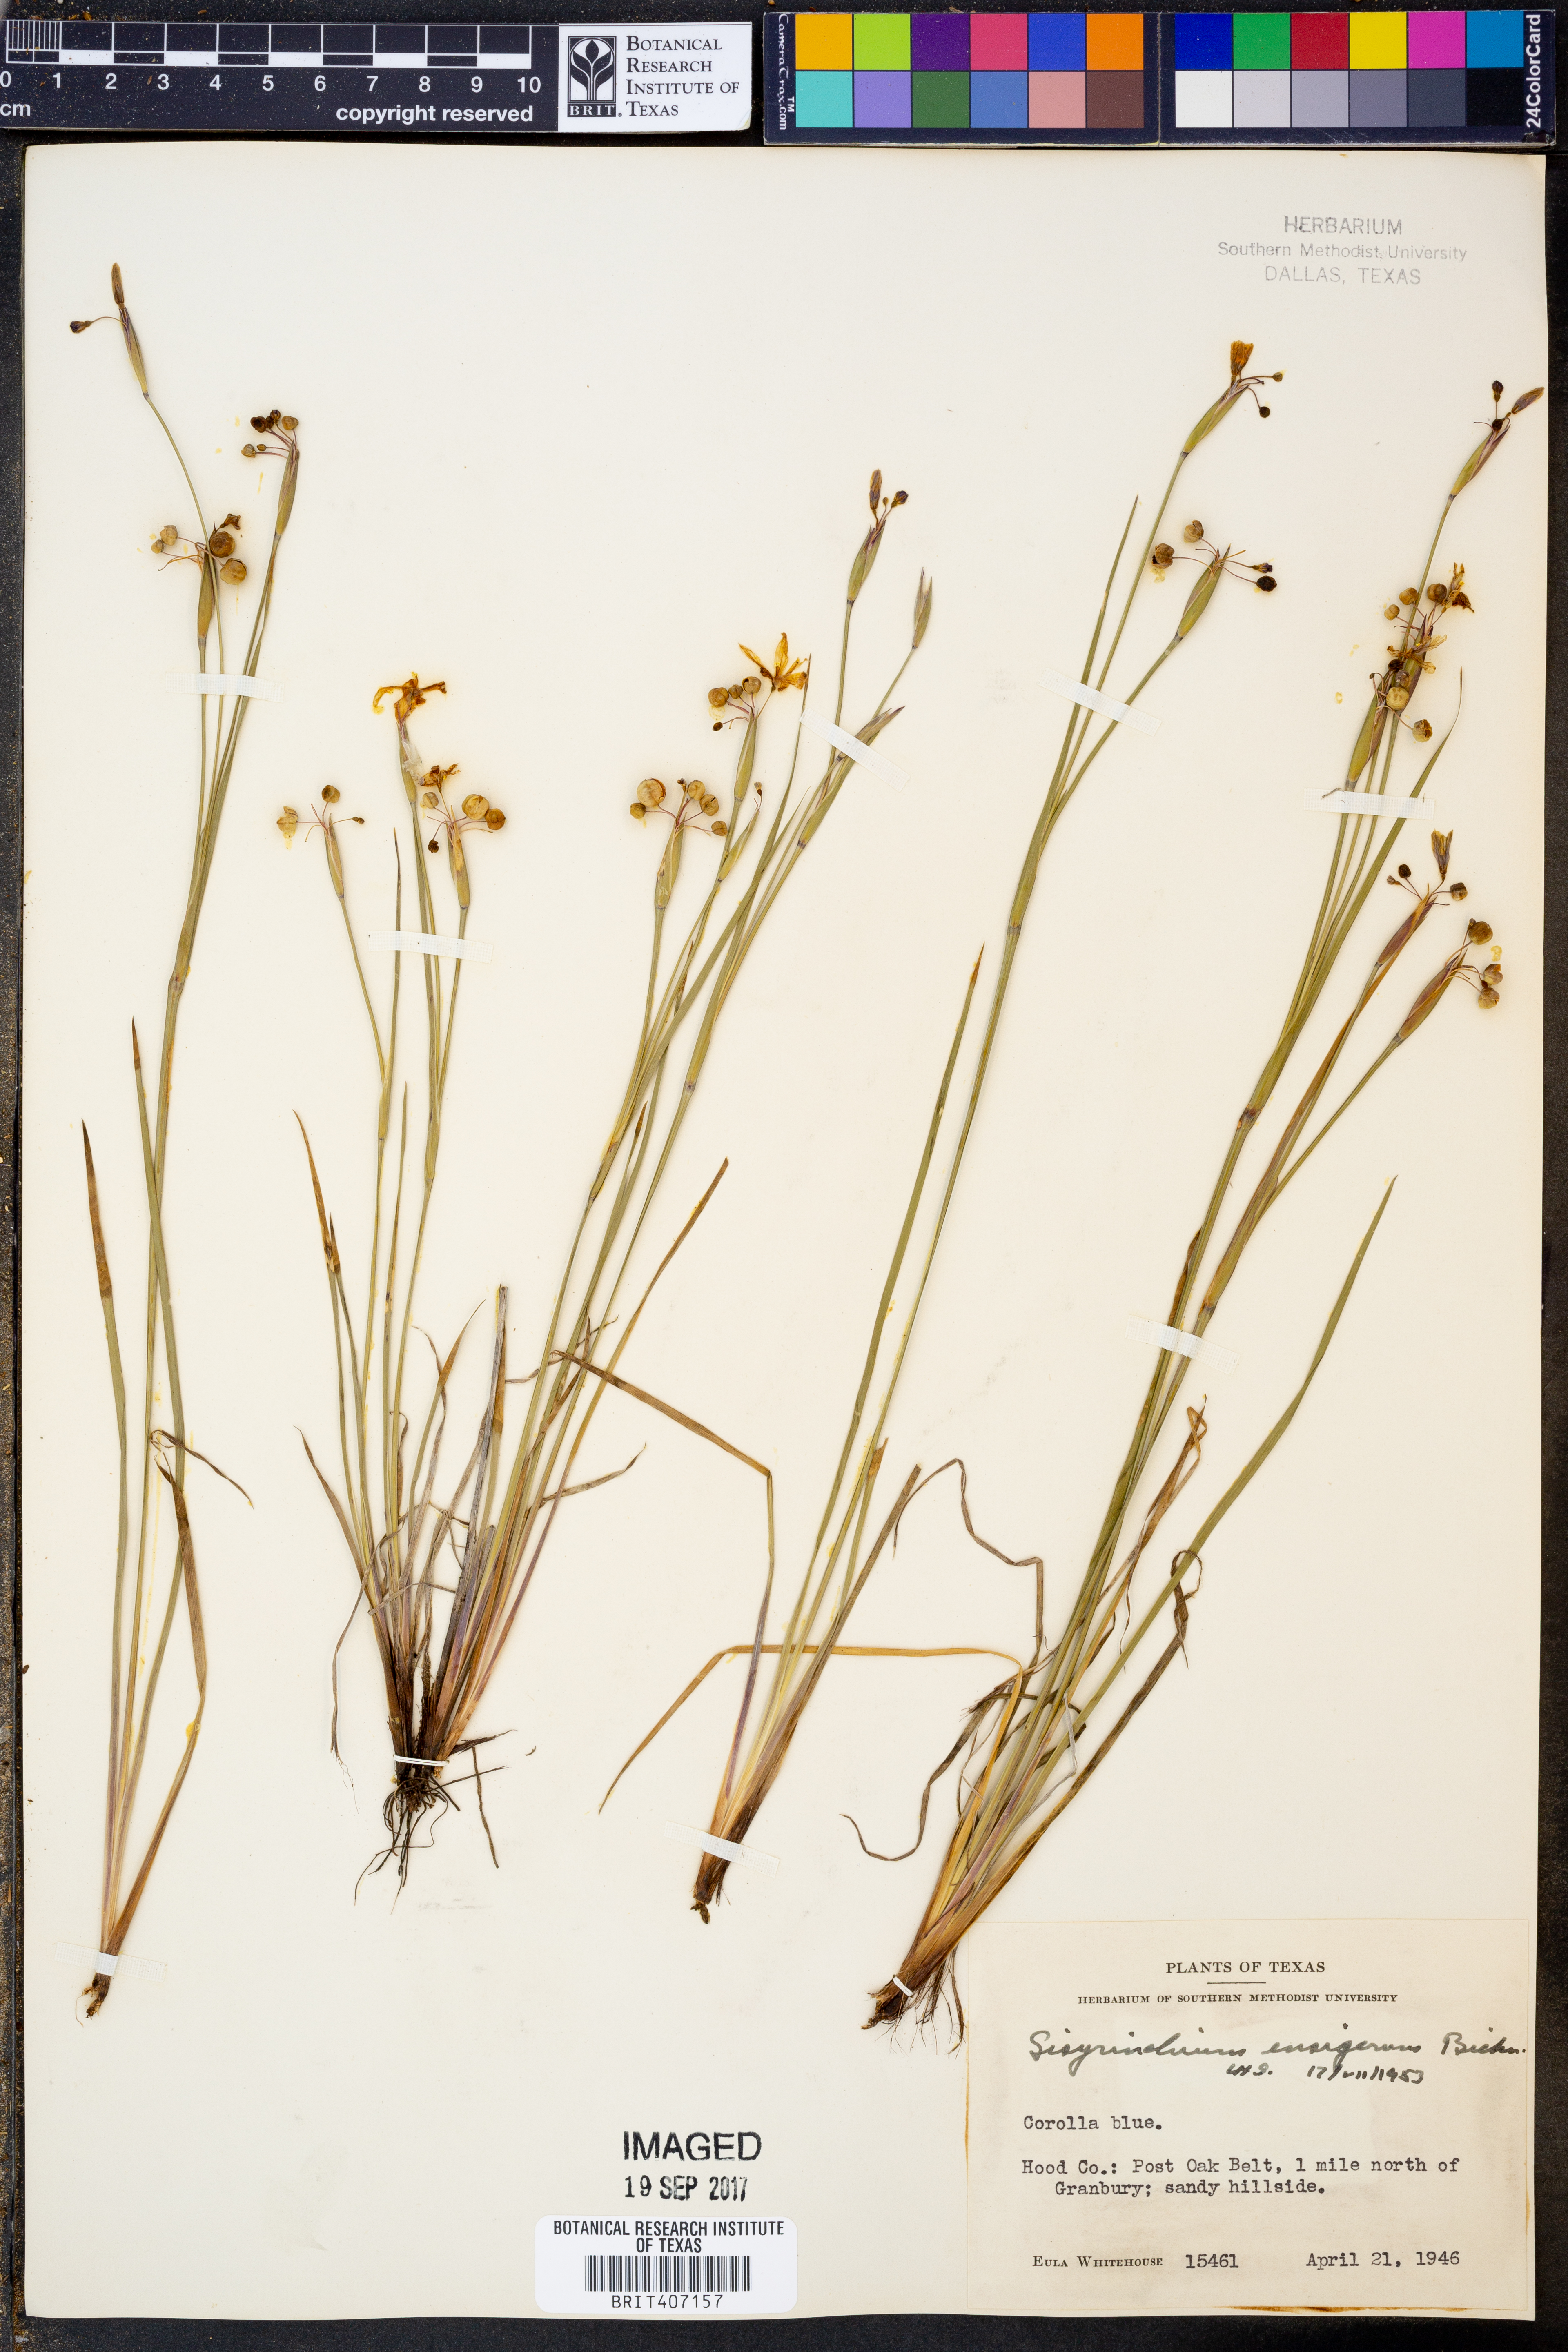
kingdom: Plantae
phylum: Tracheophyta
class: Liliopsida
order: Asparagales
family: Iridaceae
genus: Sisyrinchium
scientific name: Sisyrinchium ensigerum
